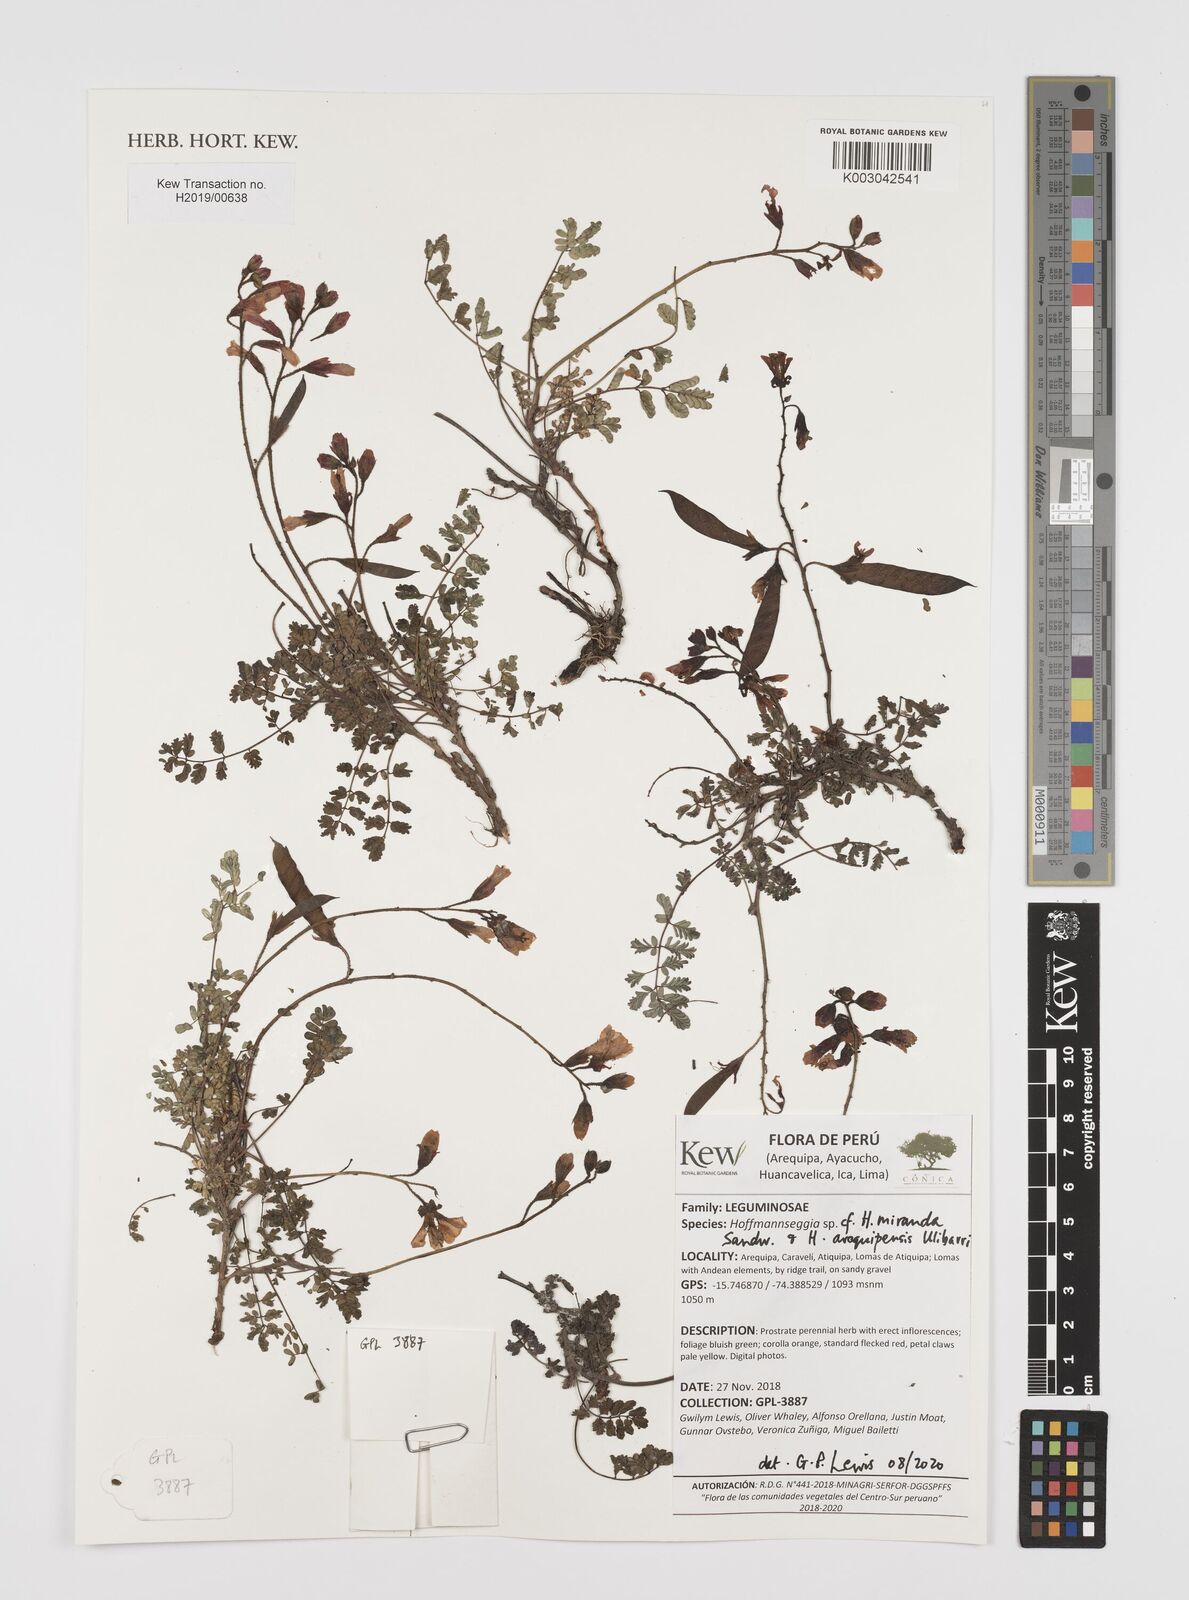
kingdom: Plantae
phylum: Tracheophyta
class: Magnoliopsida
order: Fabales
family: Fabaceae
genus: Hoffmannseggia
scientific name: Hoffmannseggia miranda
